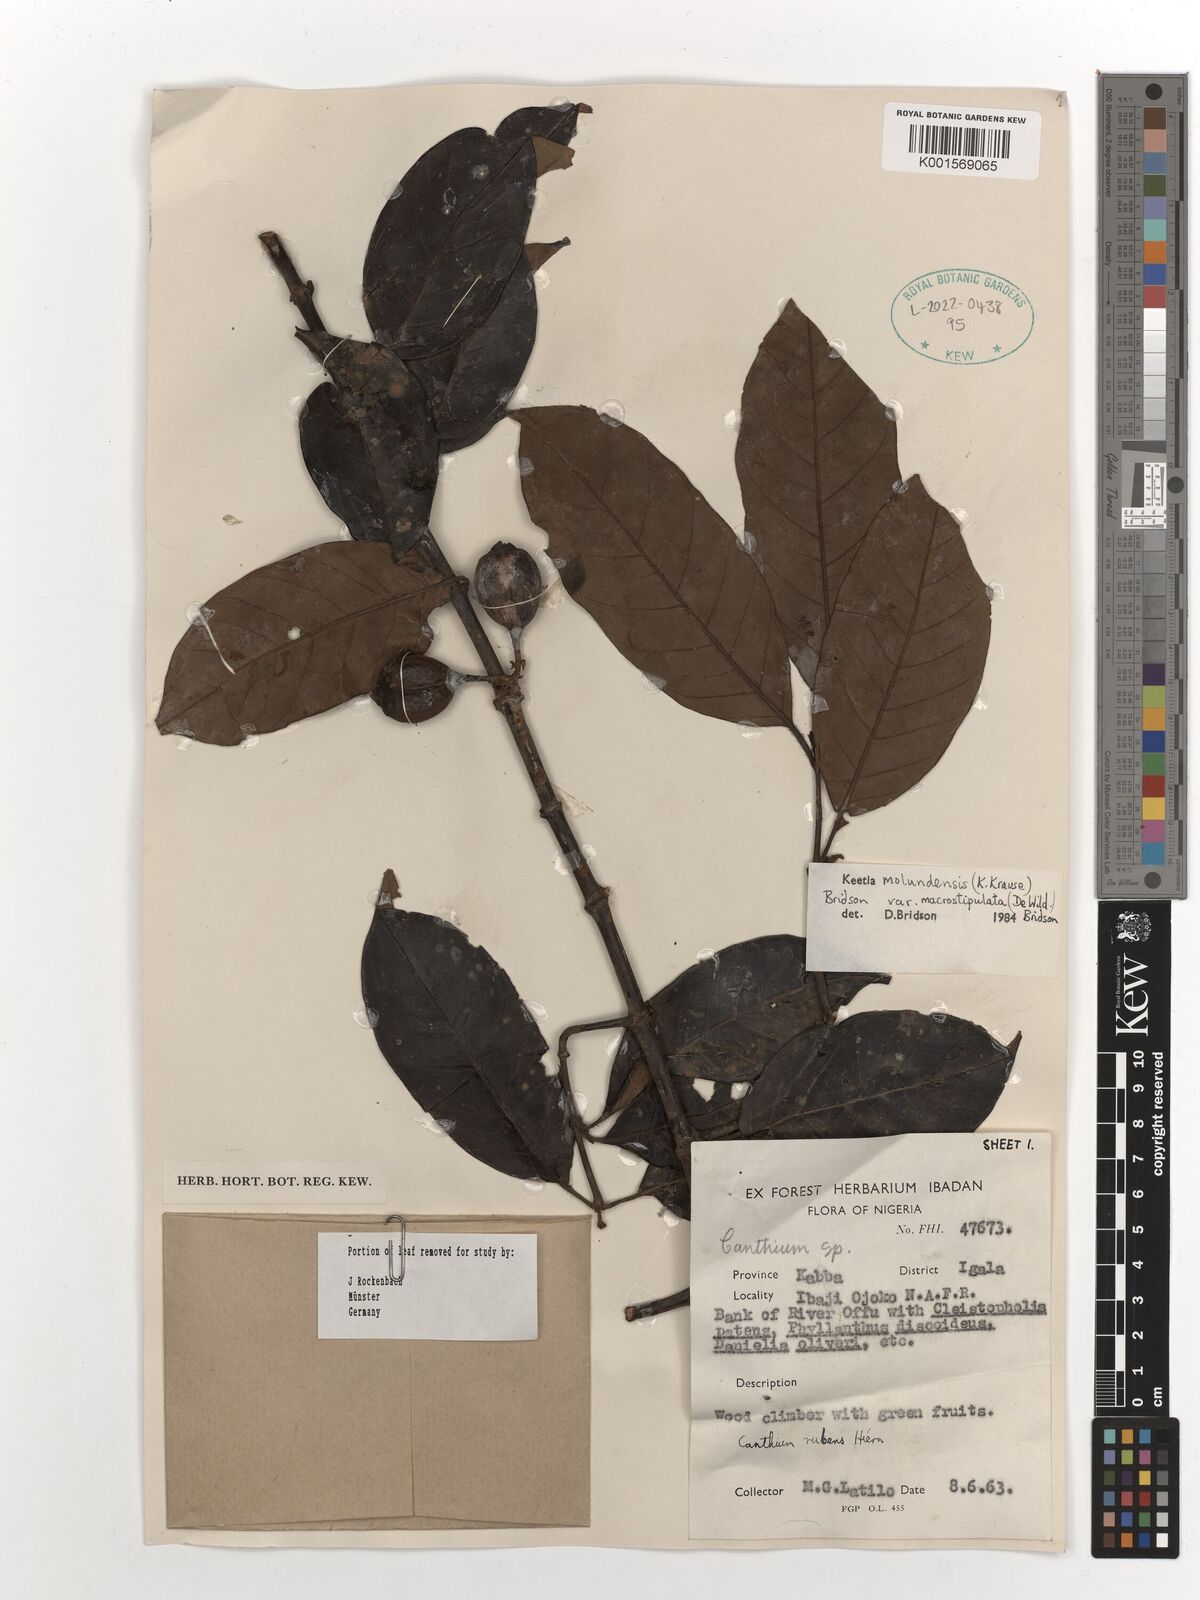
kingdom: Plantae
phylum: Tracheophyta
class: Magnoliopsida
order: Gentianales
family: Rubiaceae
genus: Keetia
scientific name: Keetia molundensis
